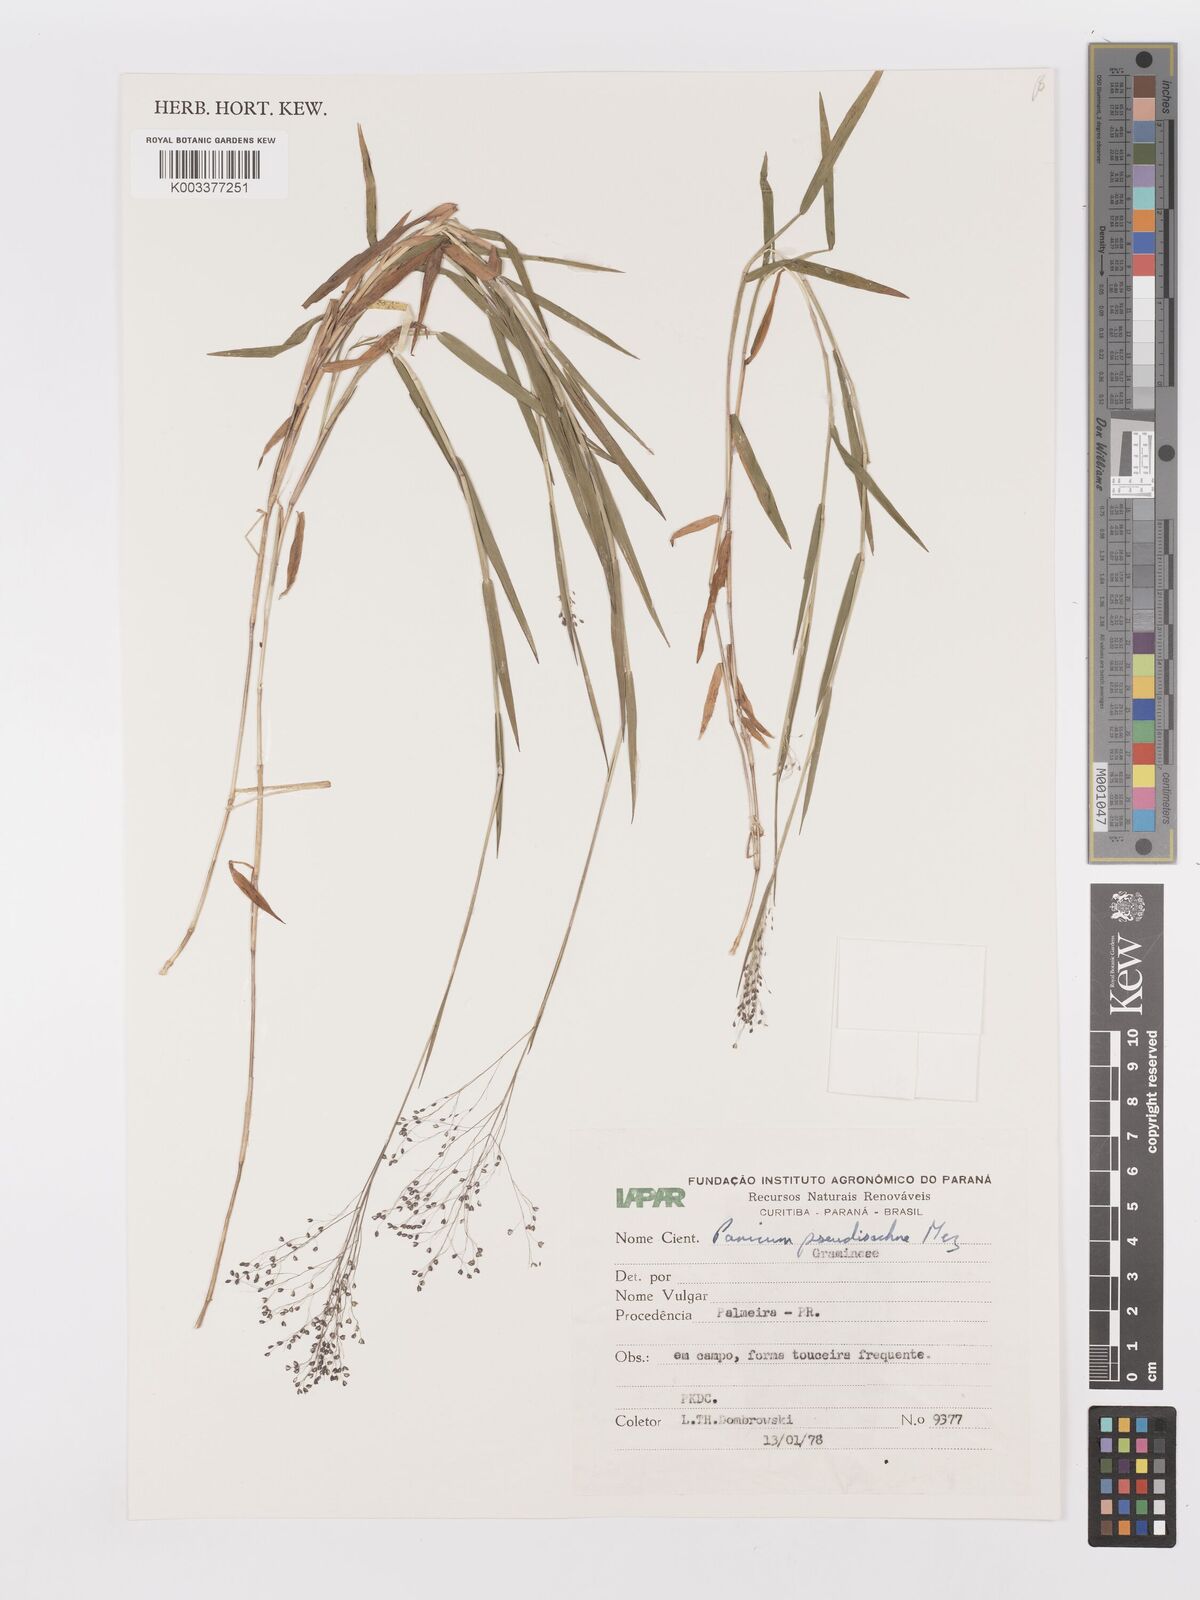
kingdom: Plantae
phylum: Tracheophyta
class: Liliopsida
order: Poales
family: Poaceae
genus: Trichanthecium
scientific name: Trichanthecium pseudisachne
